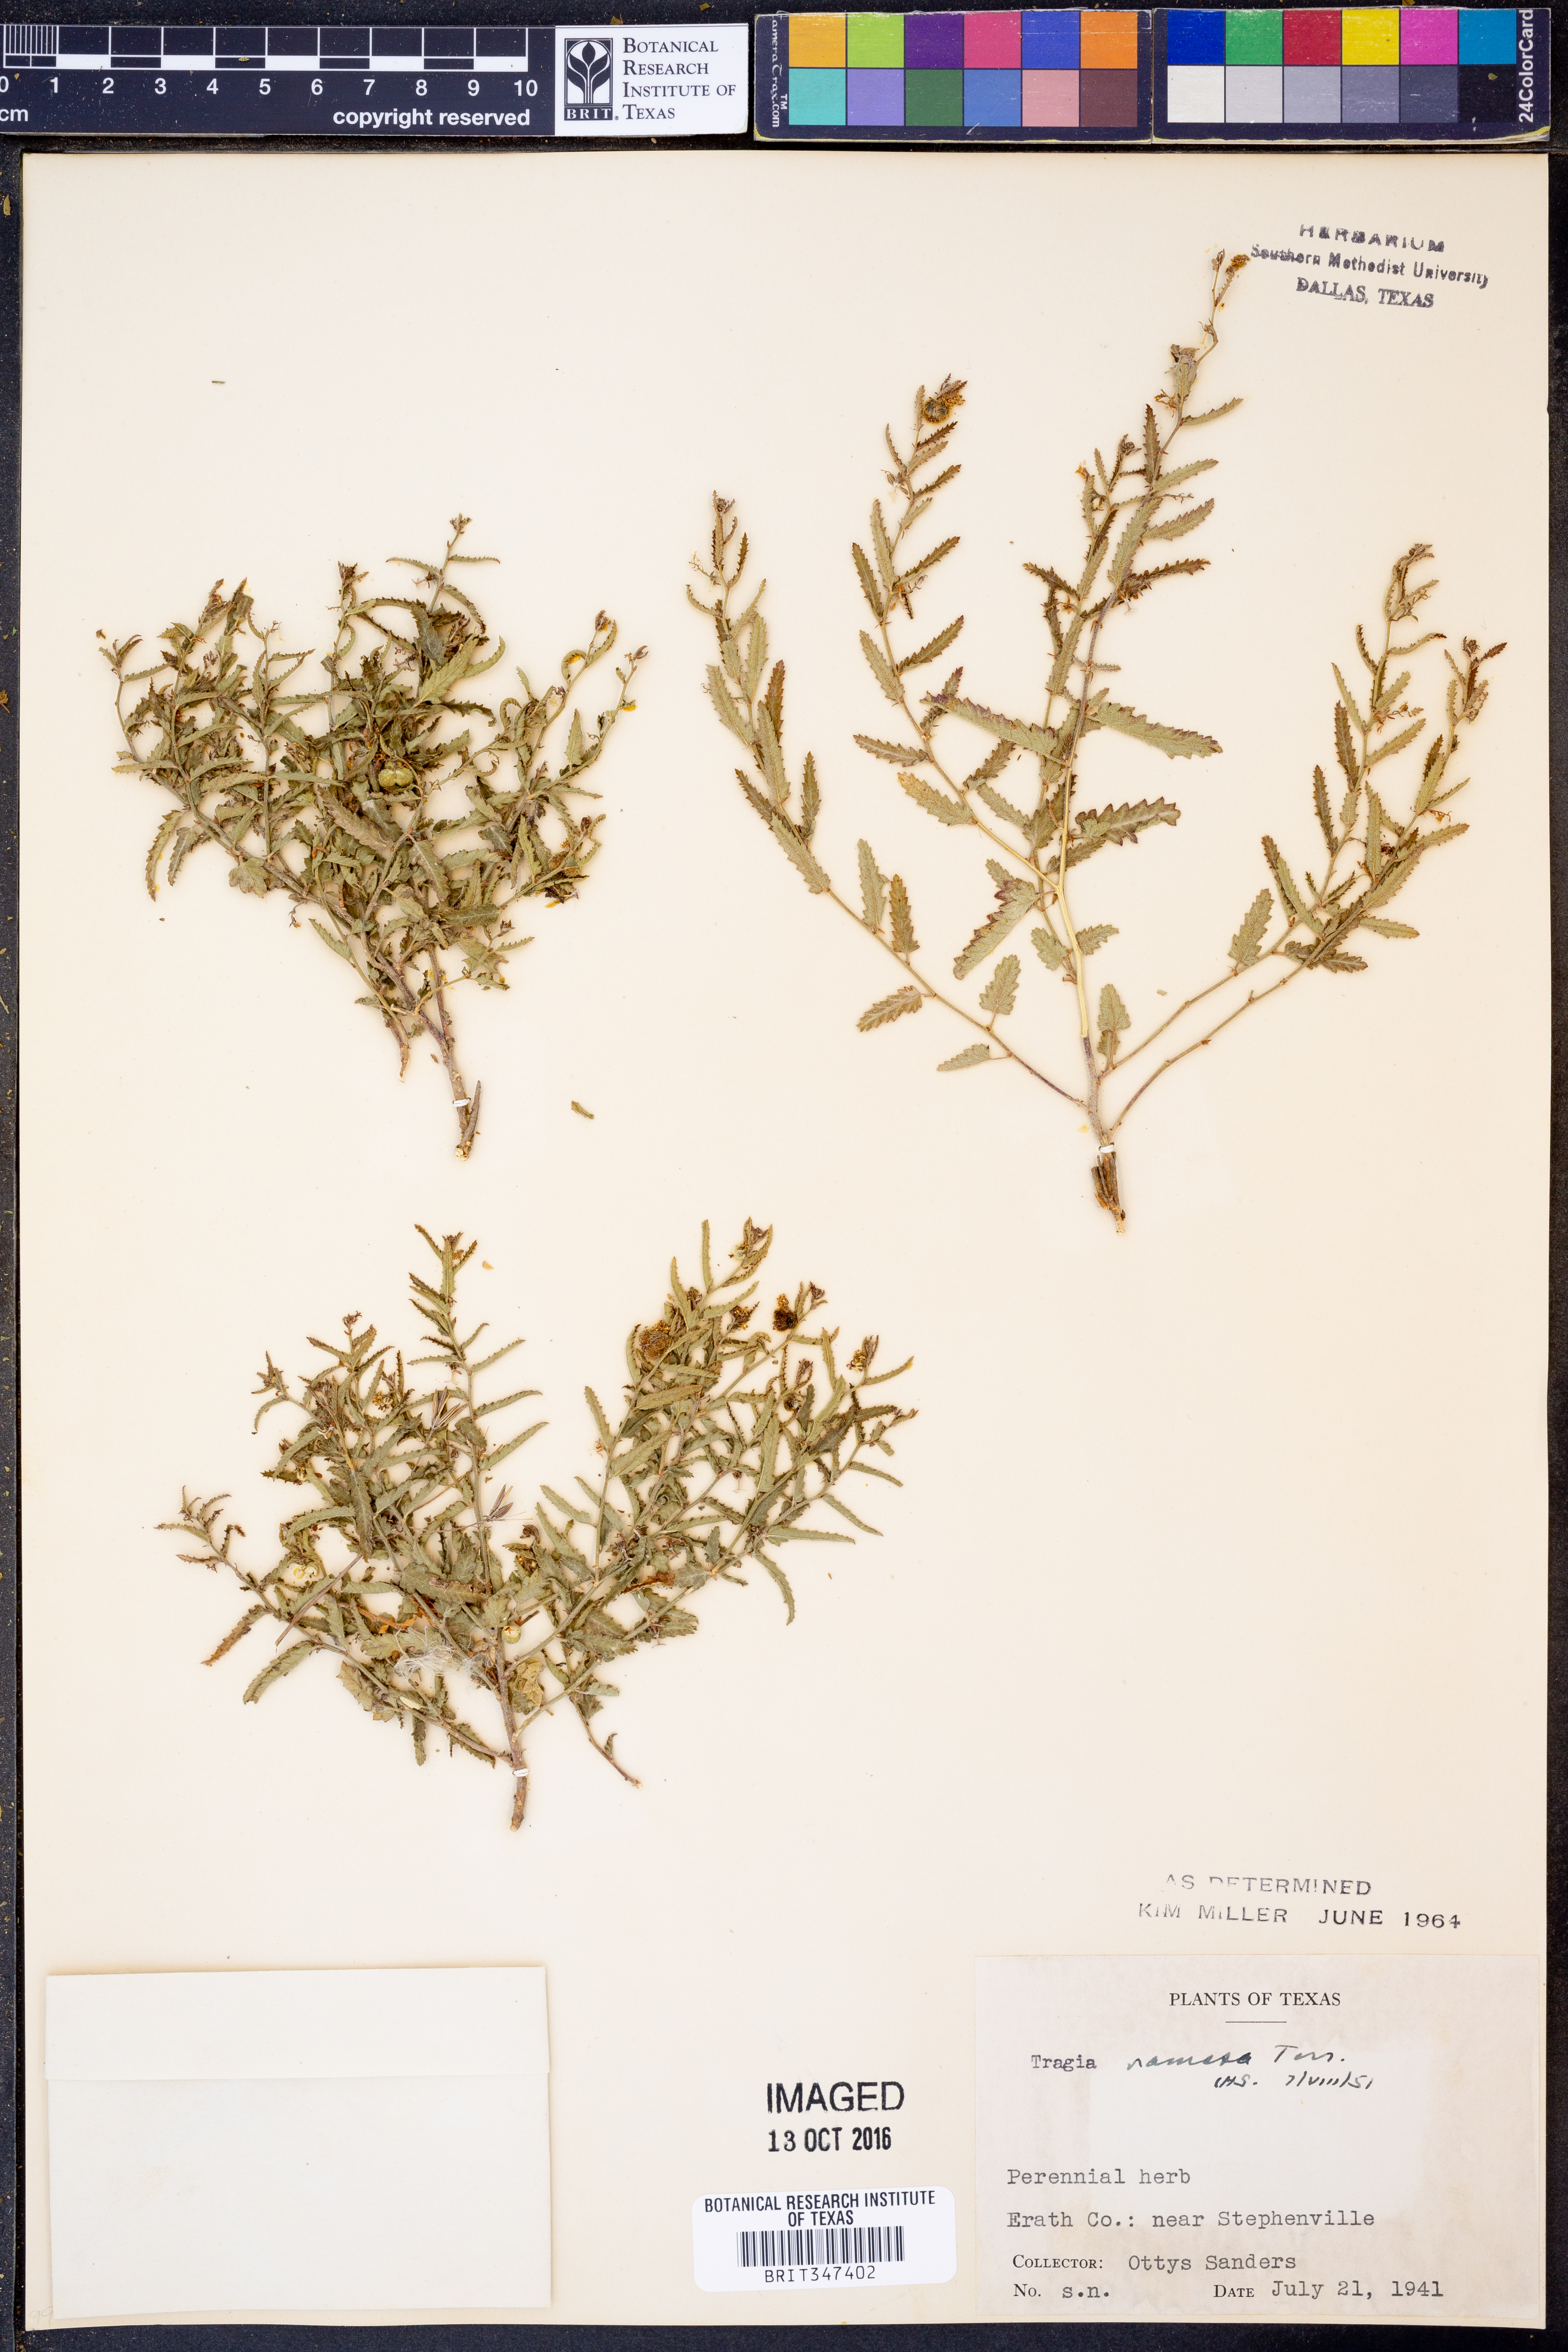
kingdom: Plantae
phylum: Tracheophyta
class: Magnoliopsida
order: Malpighiales
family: Euphorbiaceae
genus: Tragia
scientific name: Tragia ramosa
